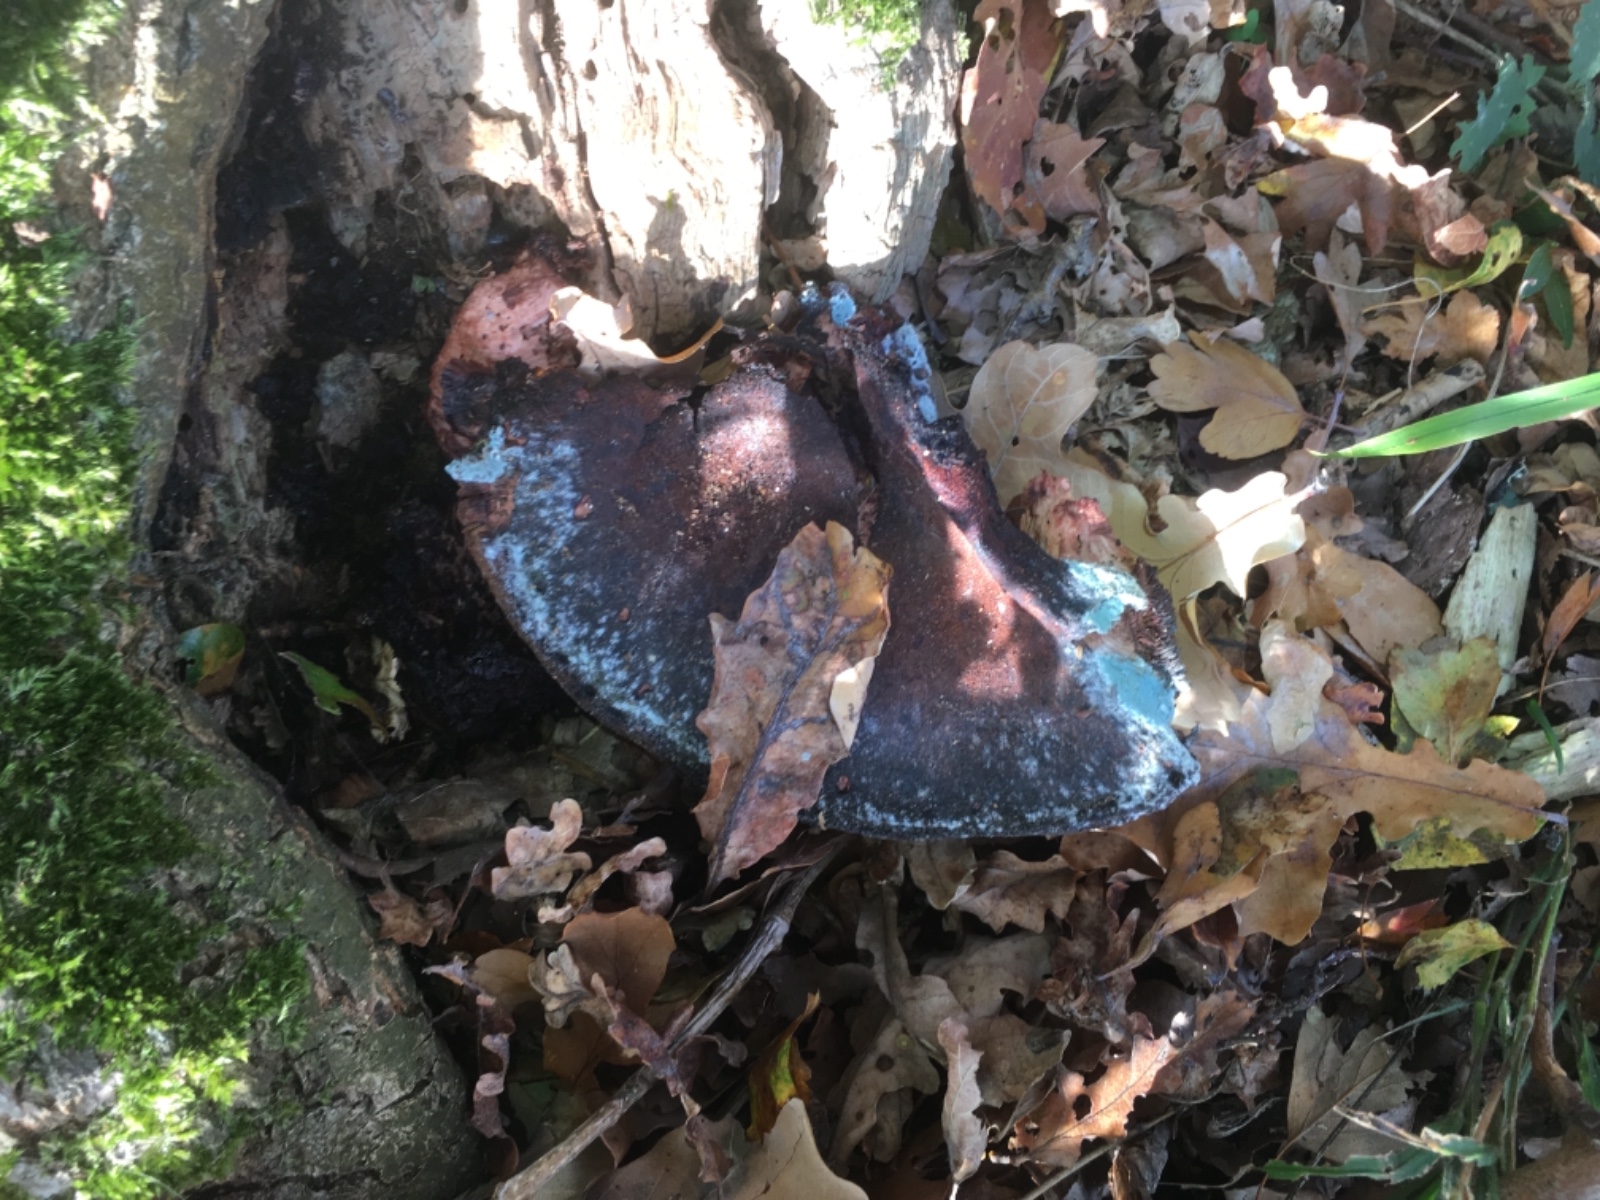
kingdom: Fungi
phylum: Basidiomycota
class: Agaricomycetes
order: Agaricales
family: Fistulinaceae
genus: Fistulina
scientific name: Fistulina hepatica
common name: oksetunge
